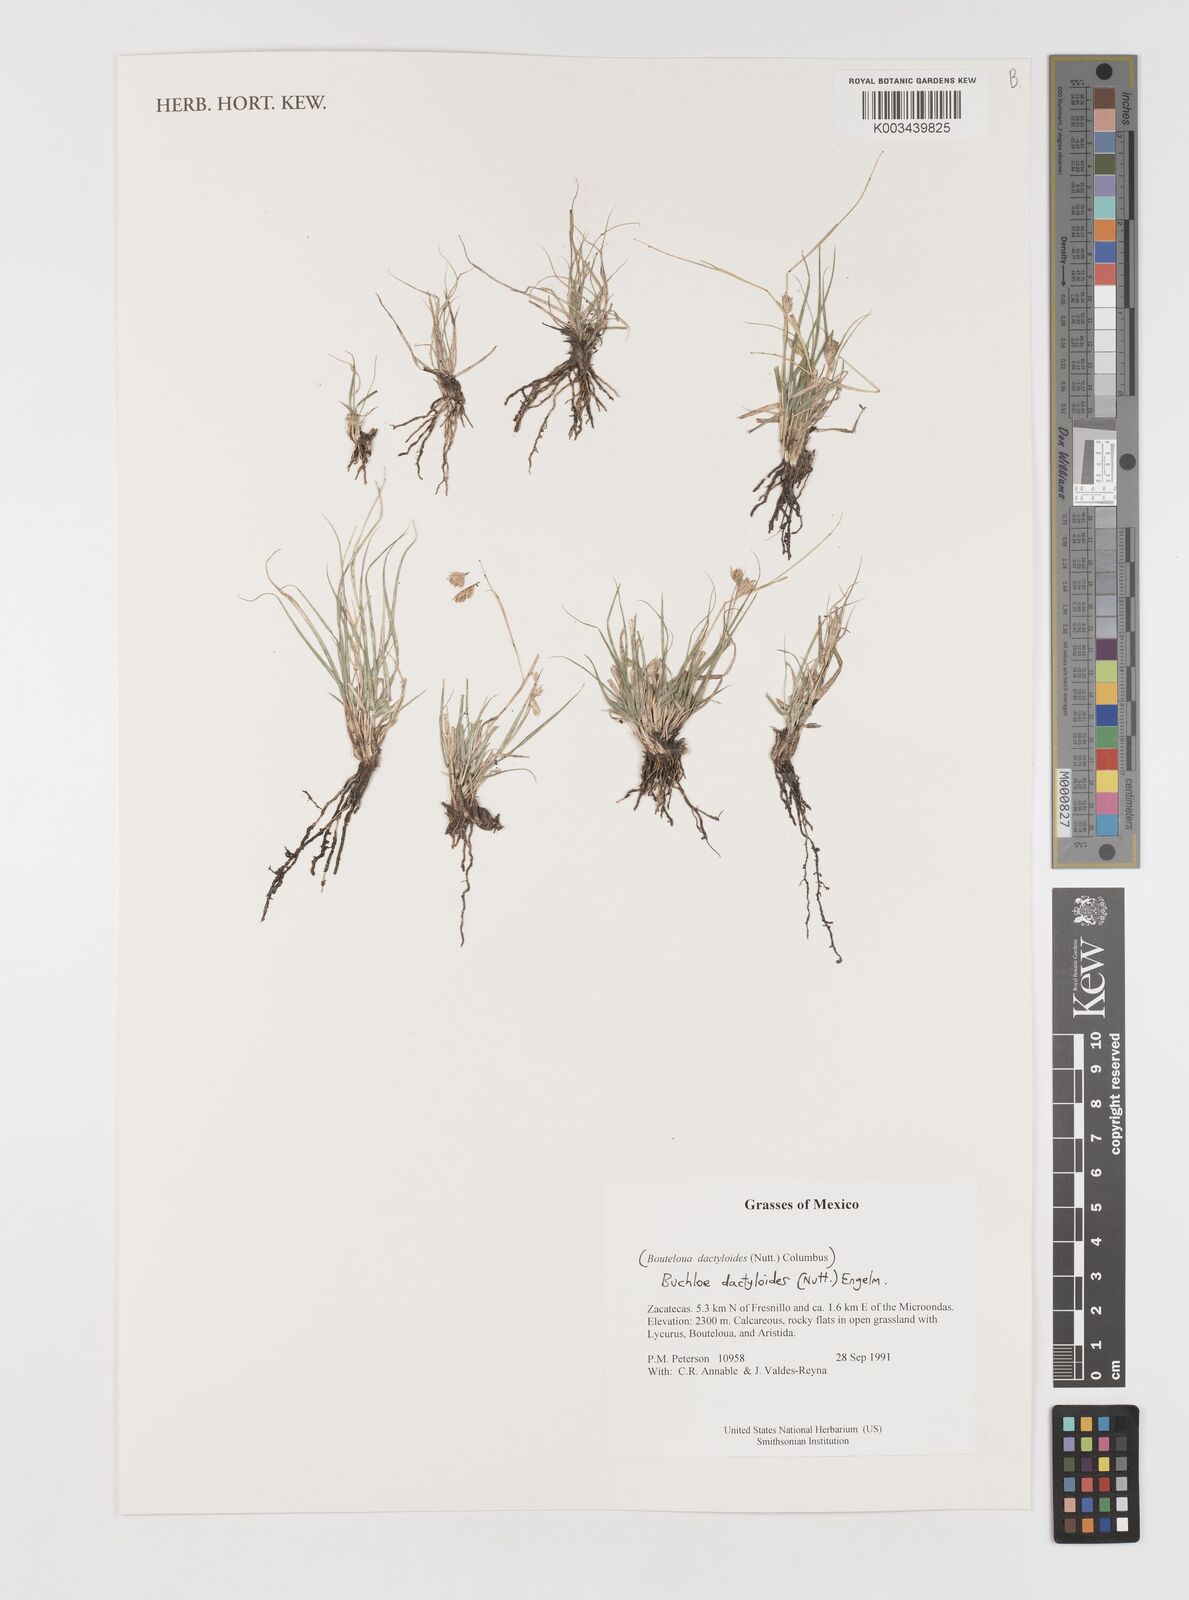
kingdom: Plantae
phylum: Tracheophyta
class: Liliopsida
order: Poales
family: Poaceae
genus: Bouteloua
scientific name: Bouteloua dactyloides
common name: Buffalo grass
